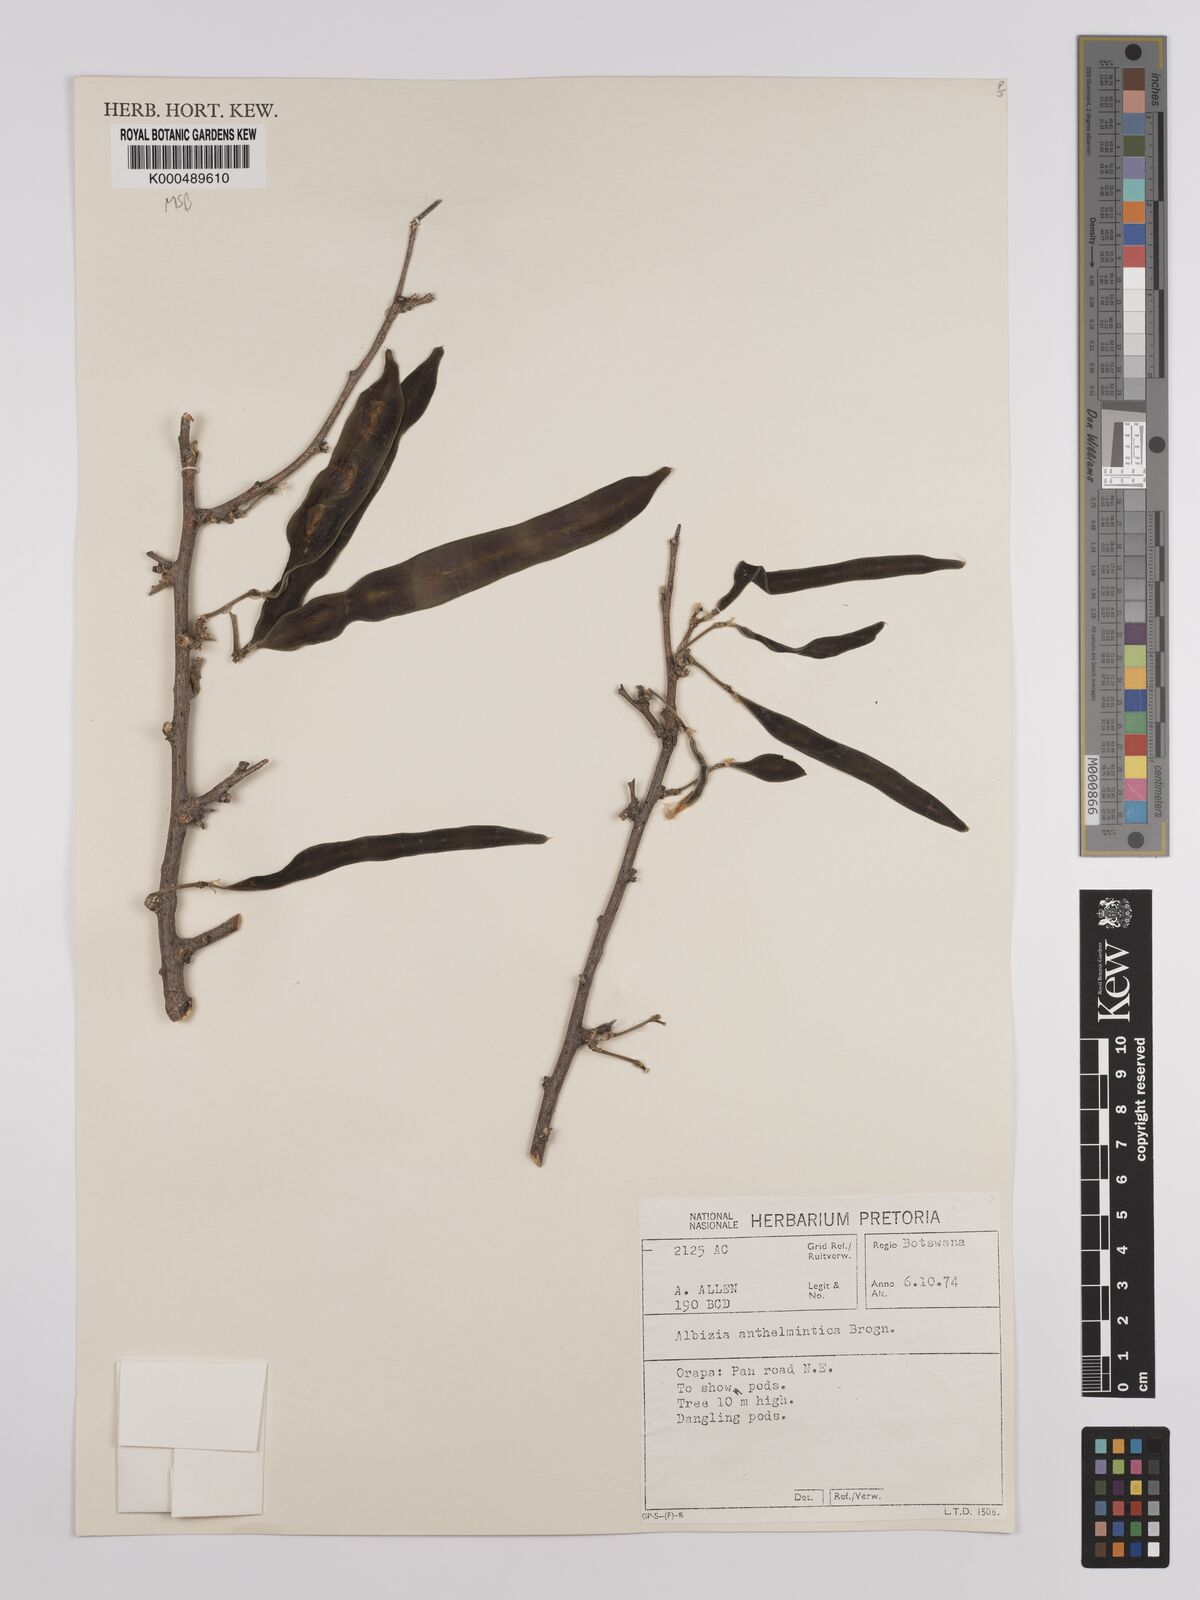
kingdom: Plantae
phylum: Tracheophyta
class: Magnoliopsida
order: Fabales
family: Fabaceae
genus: Albizia
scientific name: Albizia anthelmintica
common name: Worm-bark false-thorn
